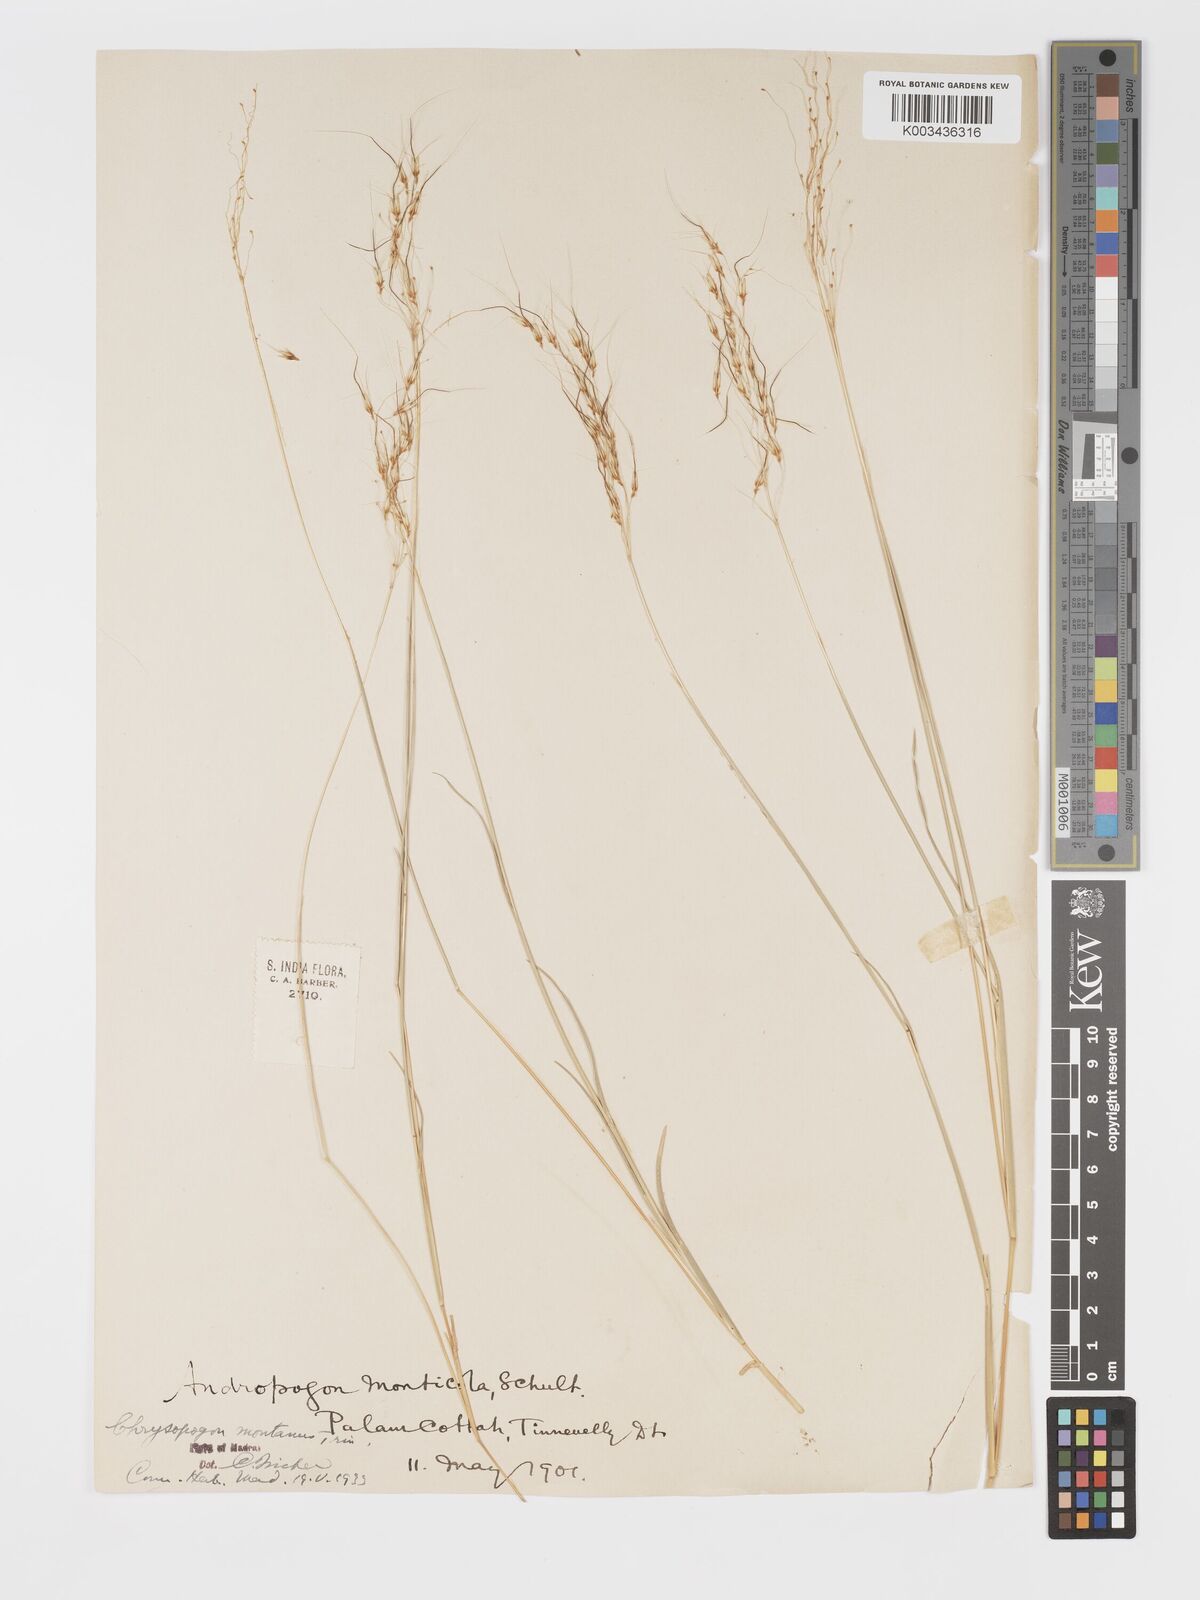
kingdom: Plantae
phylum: Tracheophyta
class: Liliopsida
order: Poales
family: Poaceae
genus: Chrysopogon
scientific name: Chrysopogon fulvus
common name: Red false beardgrass
